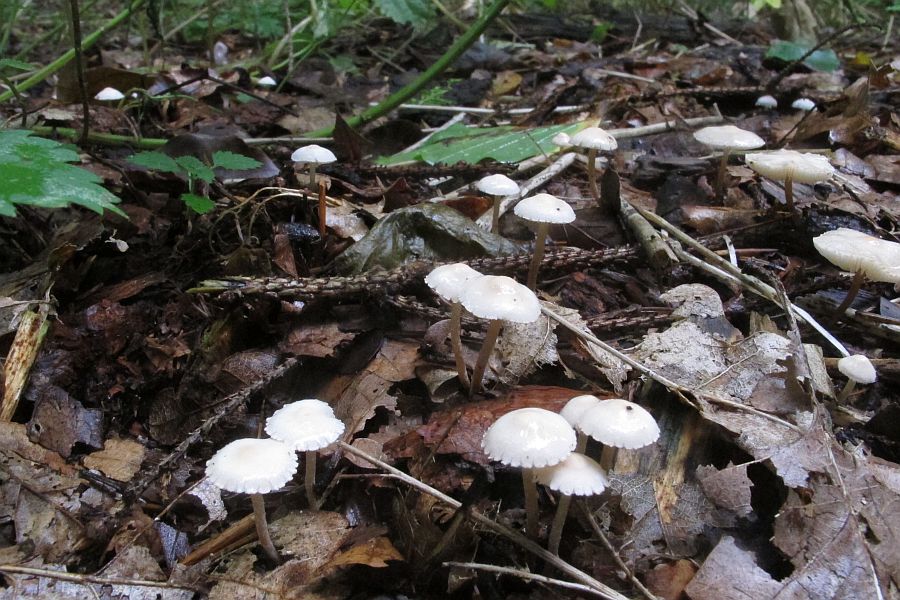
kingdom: Fungi
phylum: Basidiomycota
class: Agaricomycetes
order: Agaricales
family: Agaricaceae
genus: Cystolepiota
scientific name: Cystolepiota seminuda
